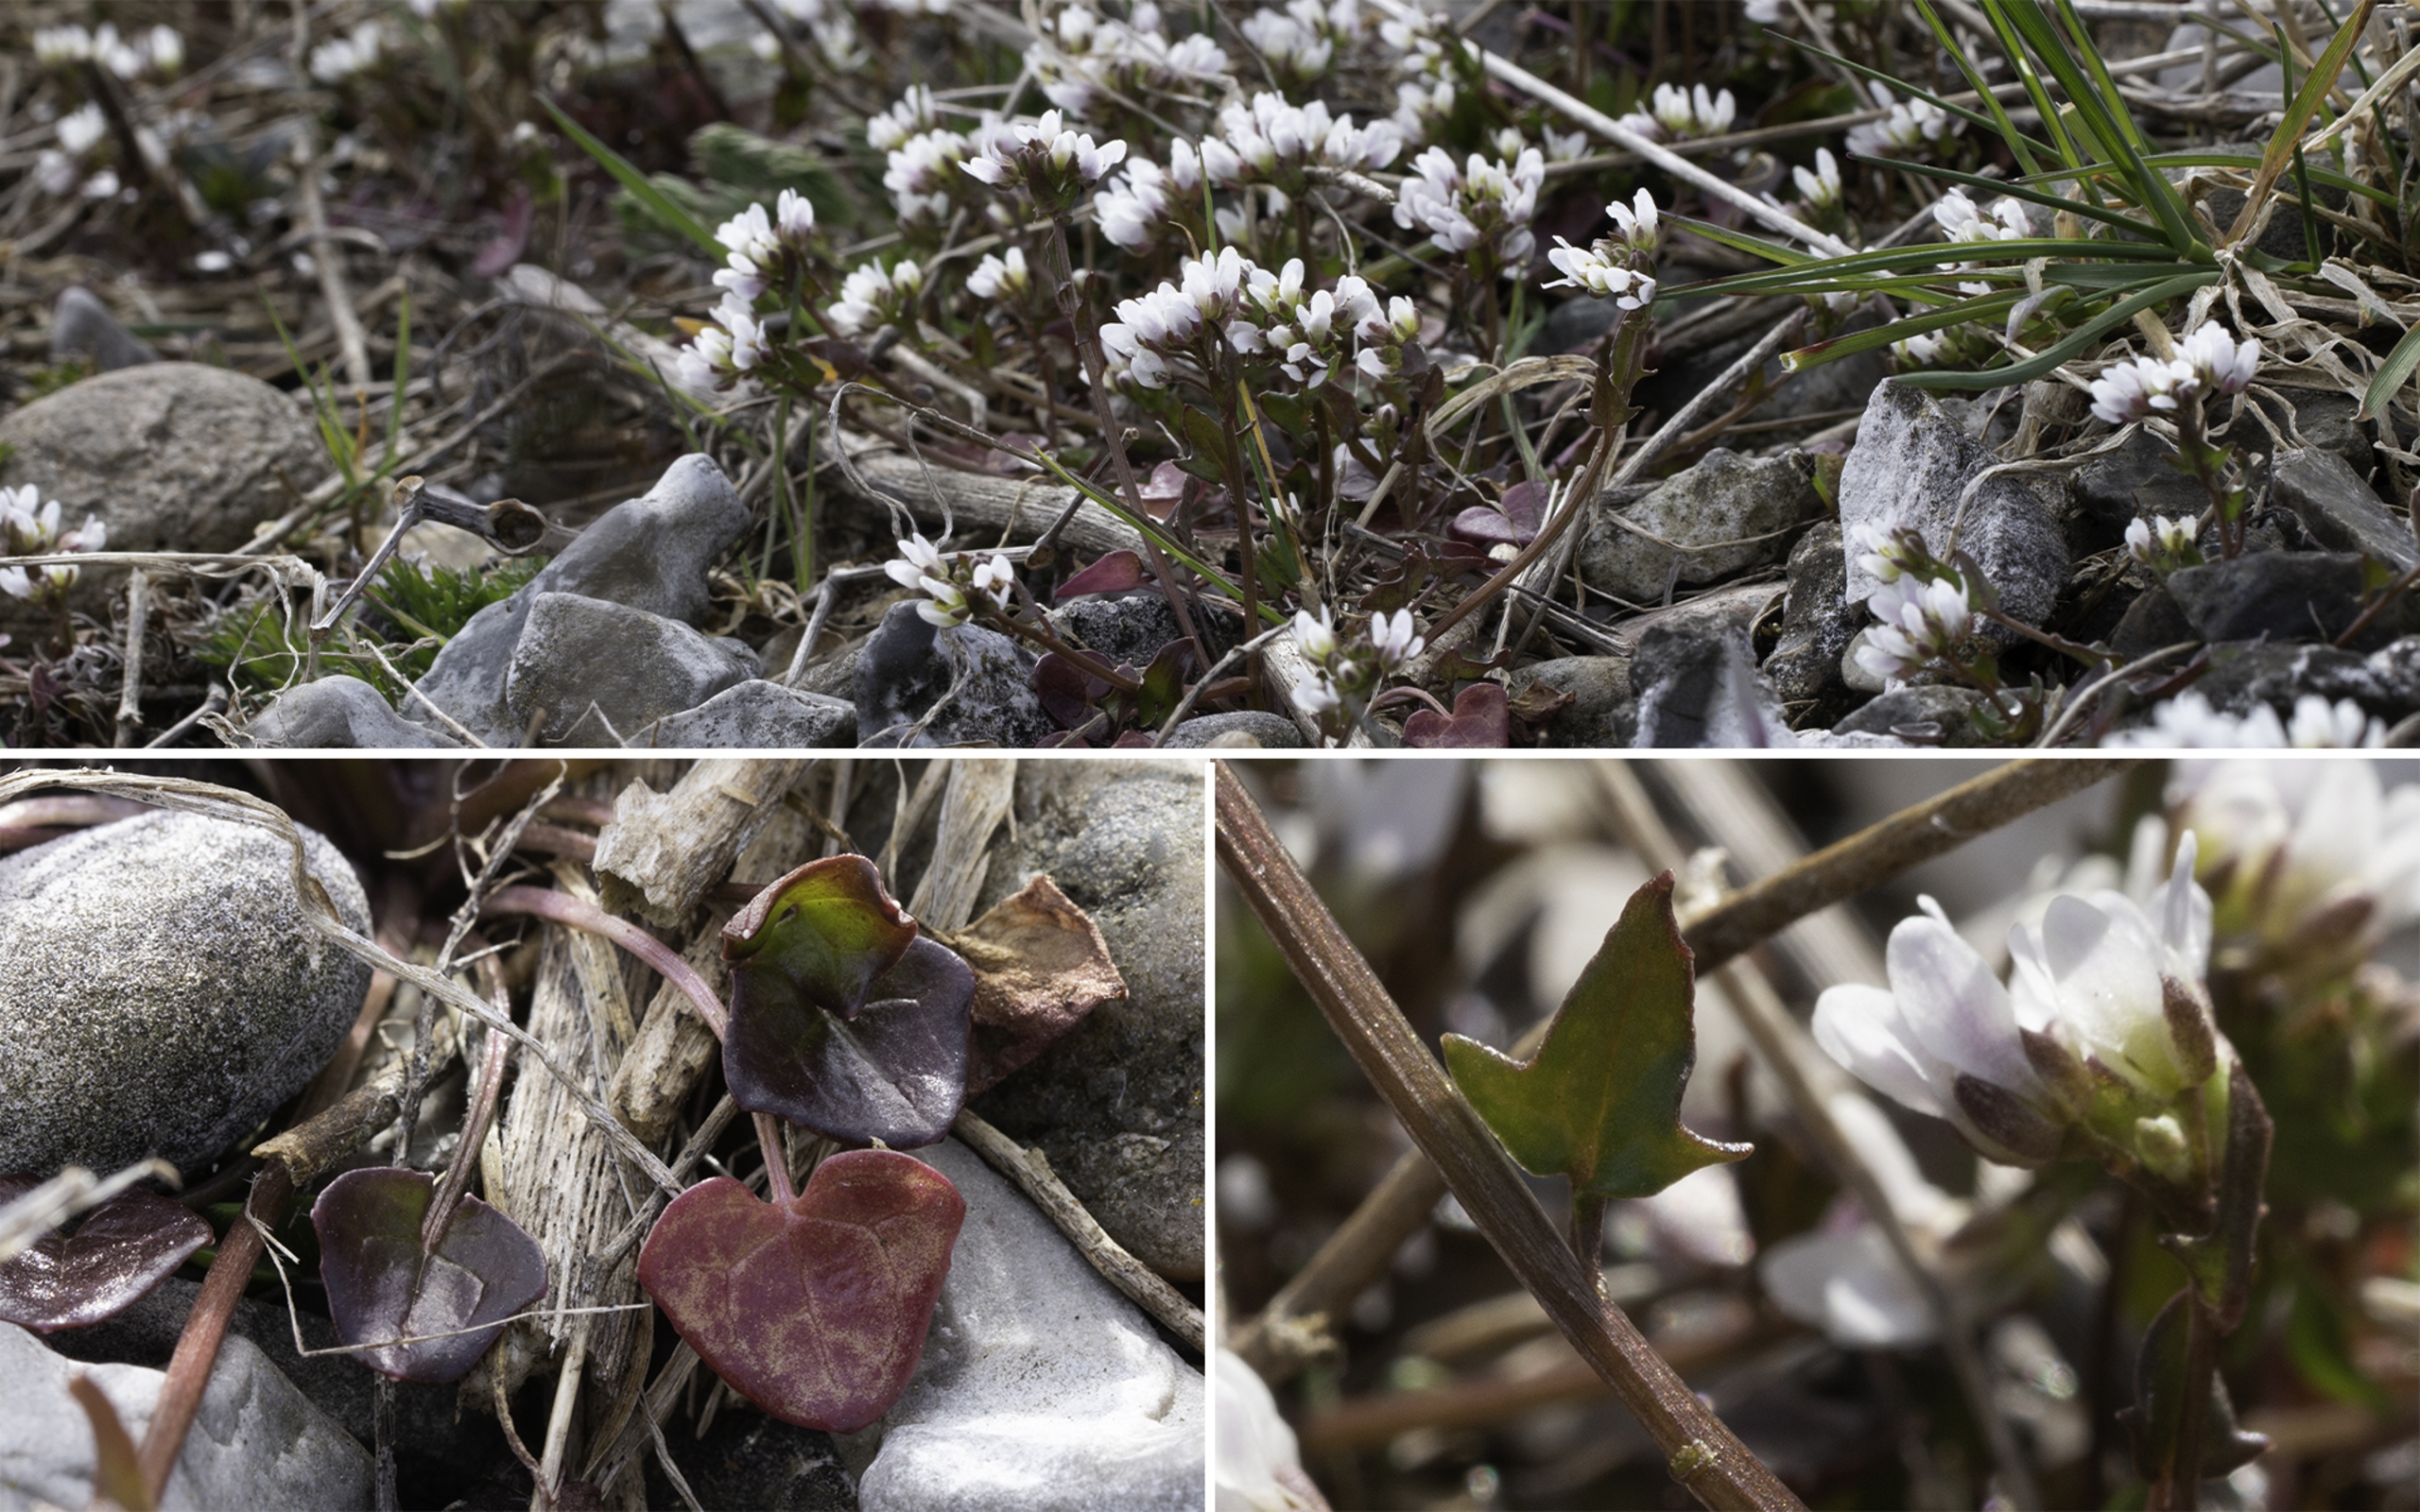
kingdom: Plantae
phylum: Tracheophyta
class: Magnoliopsida
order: Brassicales
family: Brassicaceae
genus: Cochlearia
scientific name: Cochlearia danica
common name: Dansk kokleare
